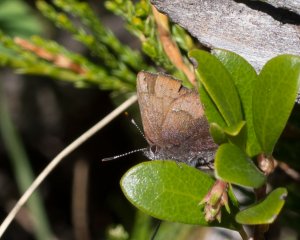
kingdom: Animalia
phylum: Arthropoda
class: Insecta
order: Lepidoptera
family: Lycaenidae
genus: Incisalia
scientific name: Incisalia irioides
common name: Brown Elfin
